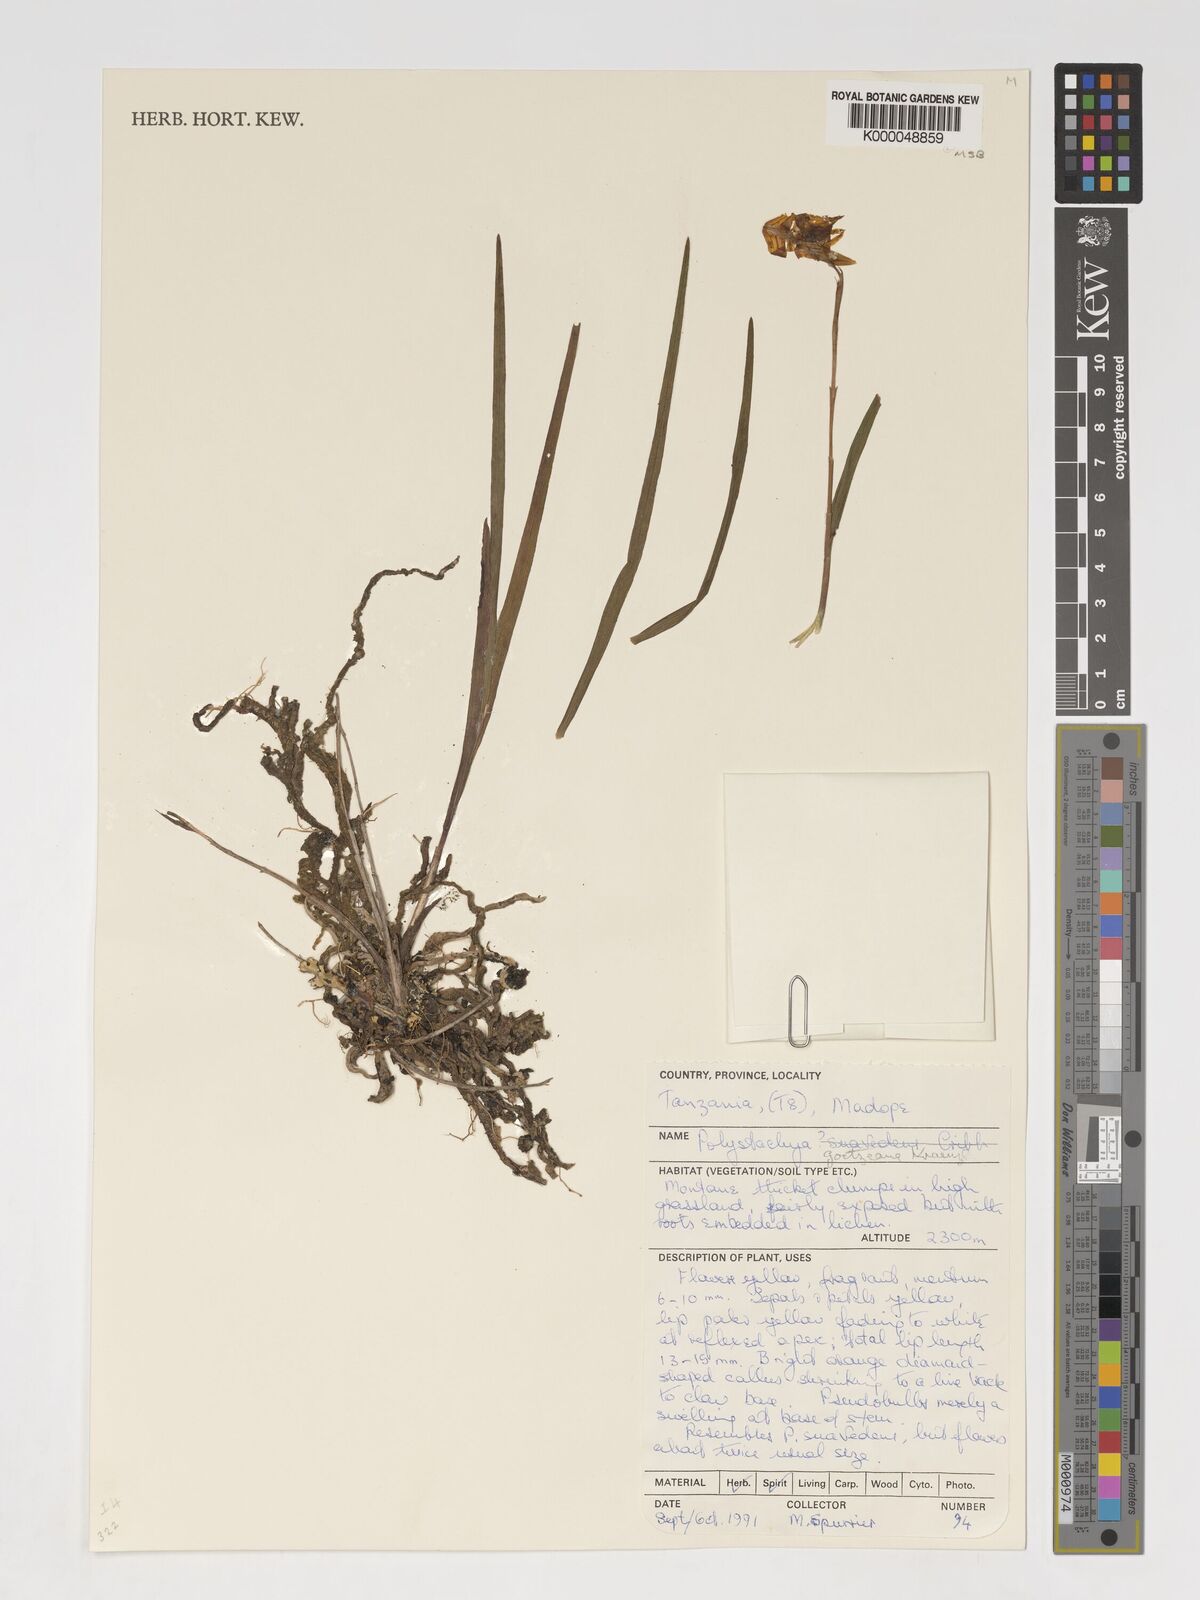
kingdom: Plantae
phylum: Tracheophyta
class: Liliopsida
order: Asparagales
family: Orchidaceae
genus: Polystachya
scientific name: Polystachya goetzeana
